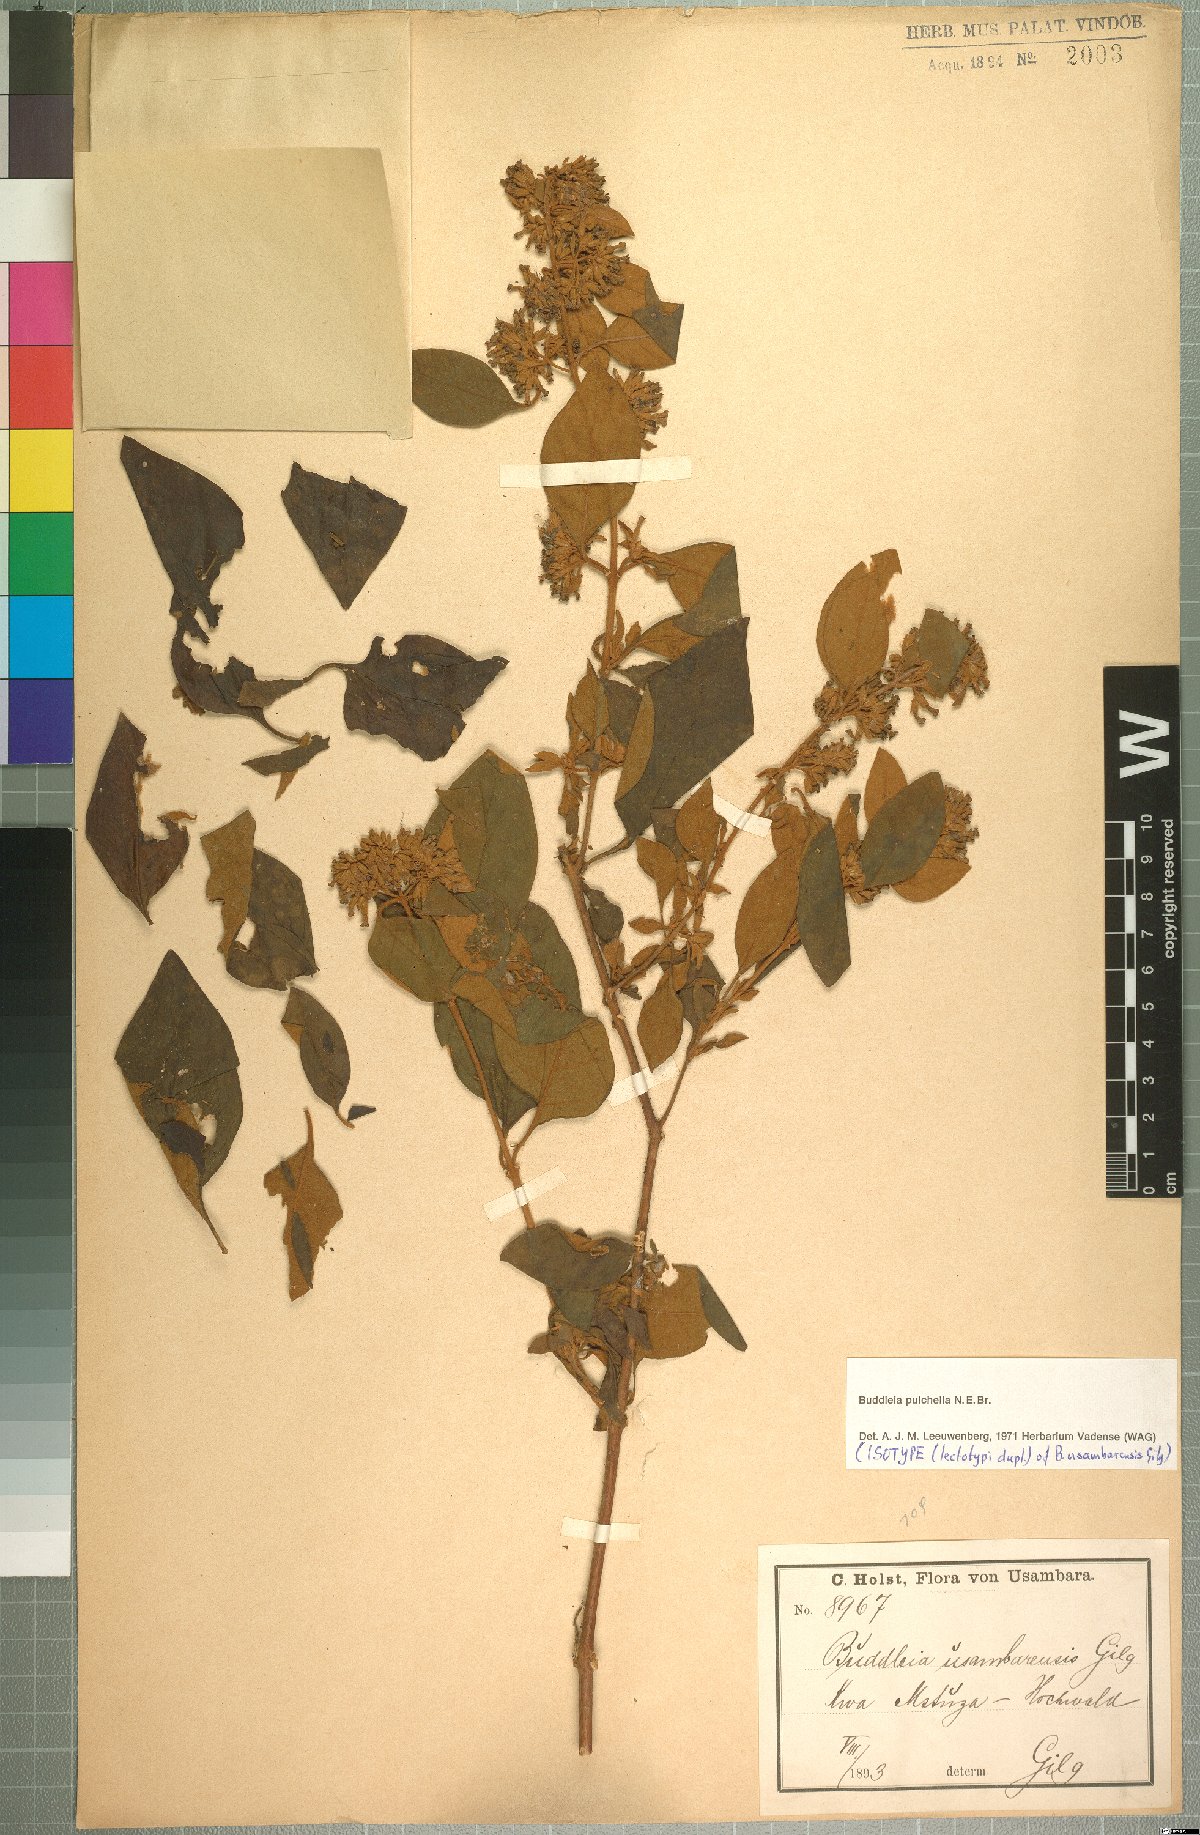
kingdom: Plantae
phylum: Tracheophyta
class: Magnoliopsida
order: Lamiales
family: Scrophulariaceae
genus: Buddleja
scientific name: Buddleja pulchella
